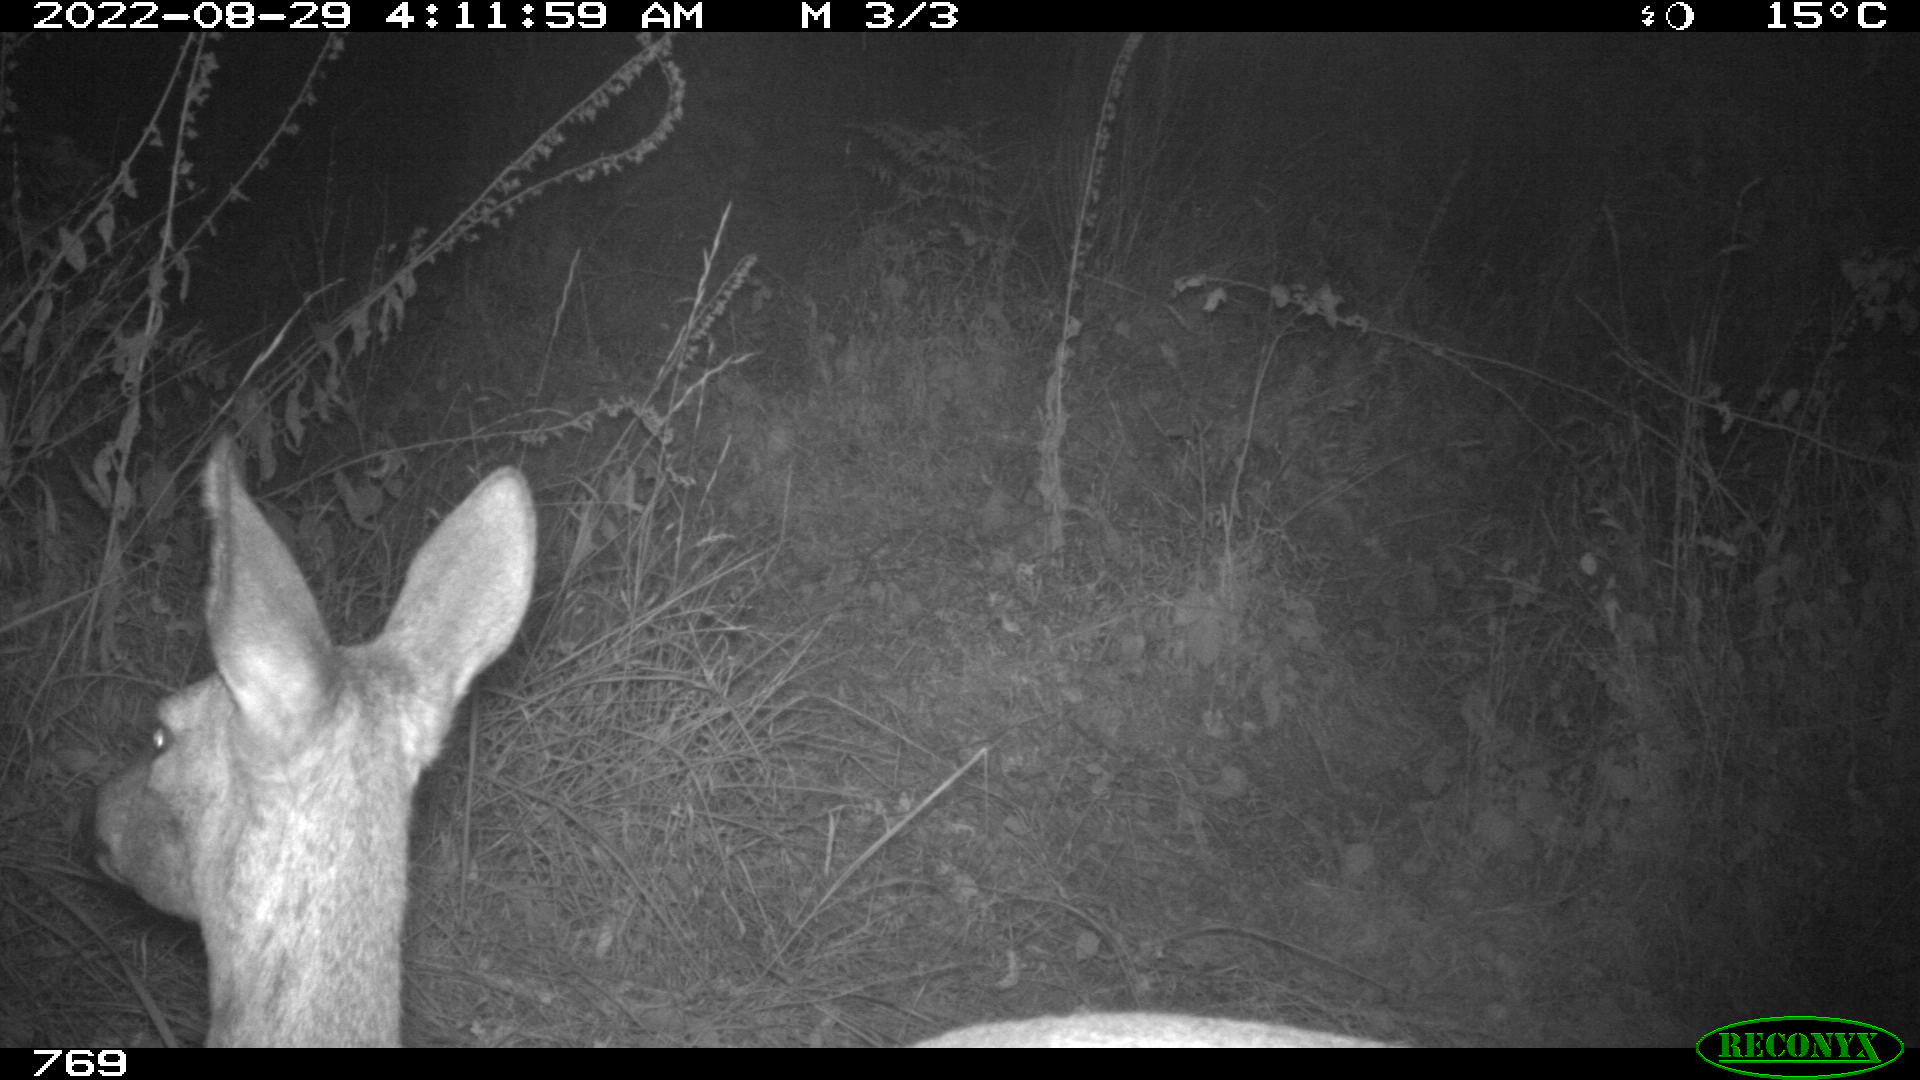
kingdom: Animalia
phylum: Chordata
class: Mammalia
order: Artiodactyla
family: Cervidae
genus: Capreolus
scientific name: Capreolus capreolus
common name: Western roe deer
